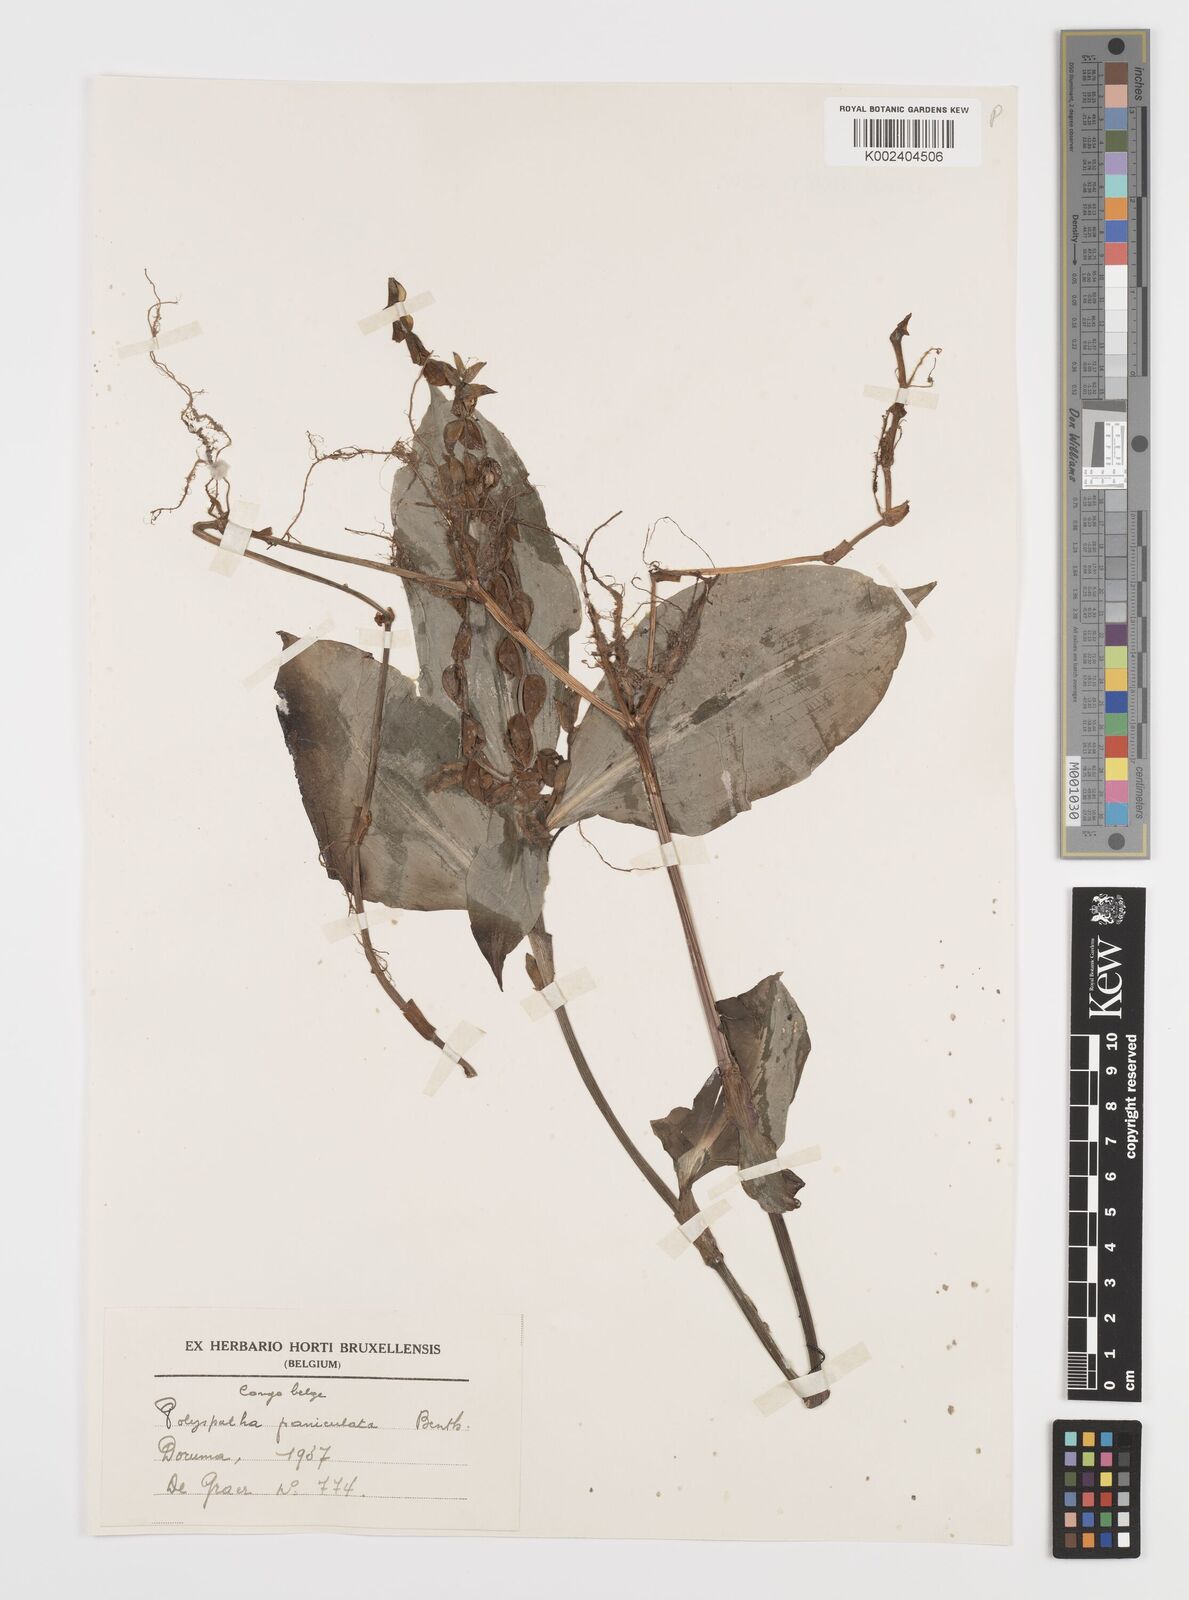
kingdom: Plantae
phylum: Tracheophyta
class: Liliopsida
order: Commelinales
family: Commelinaceae
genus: Polyspatha
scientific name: Polyspatha paniculata
